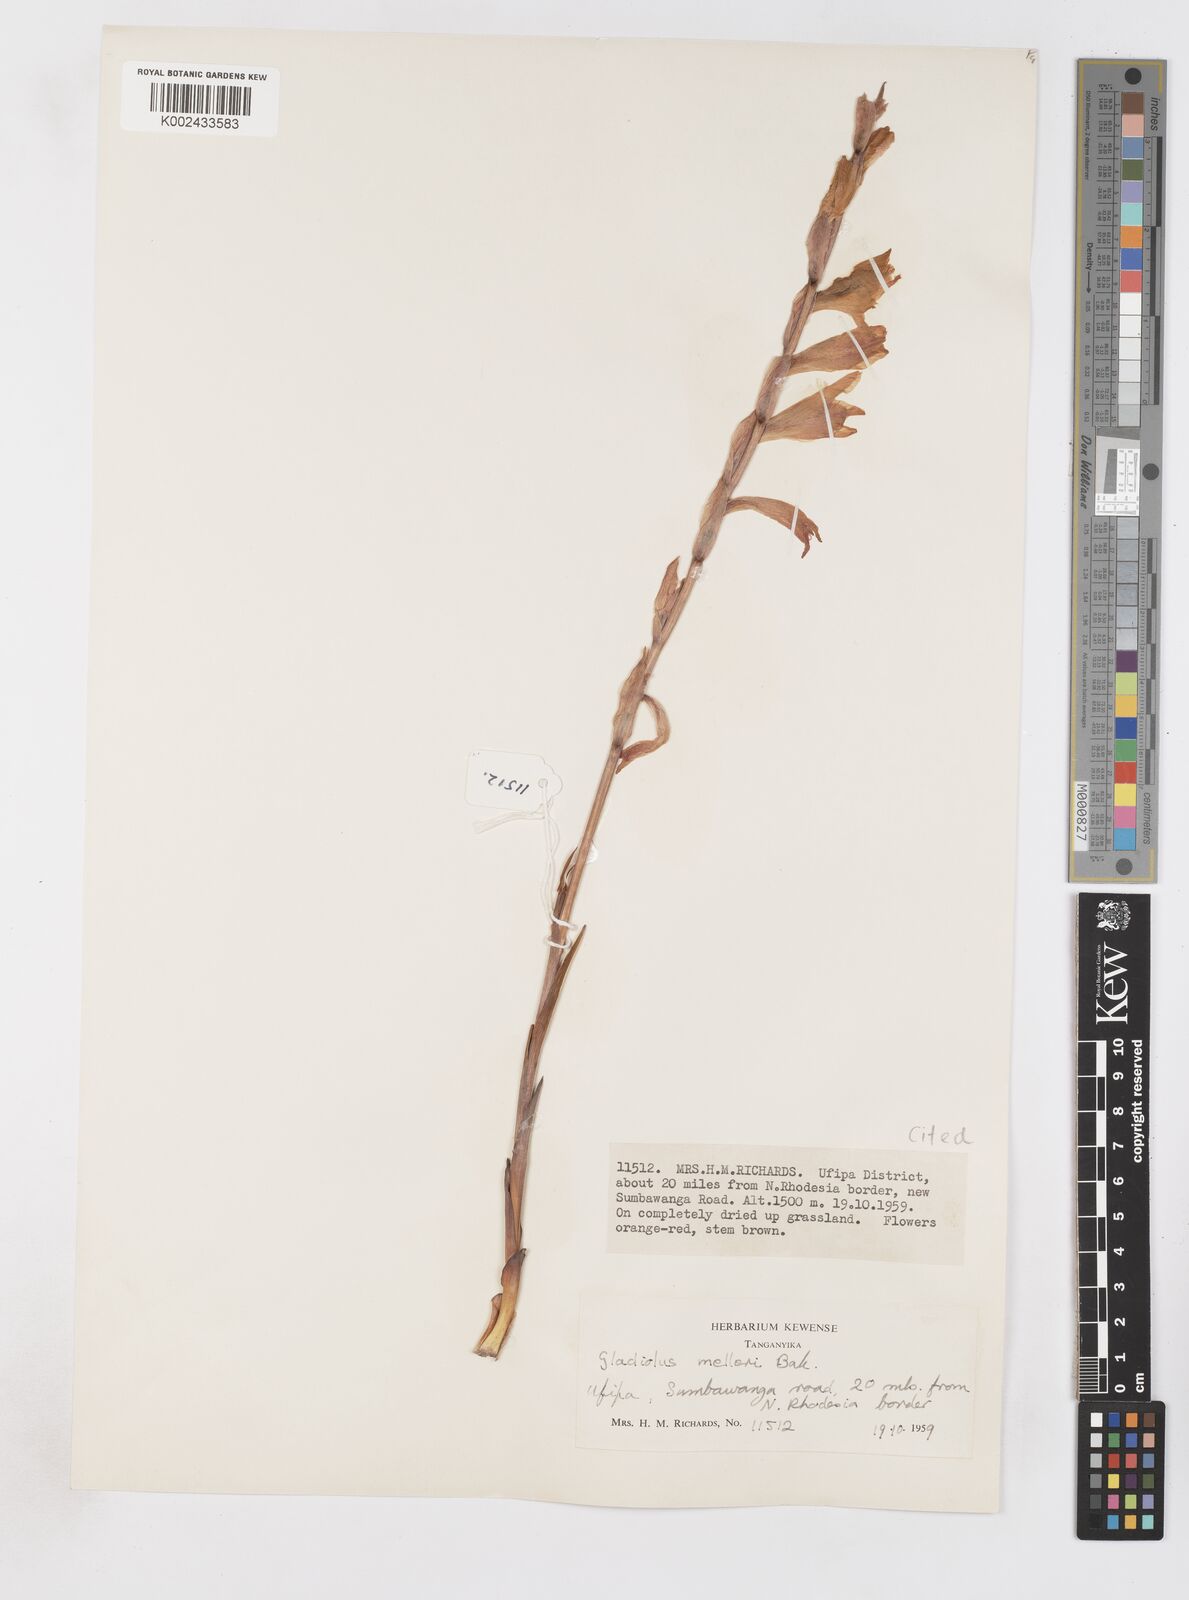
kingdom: Plantae
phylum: Tracheophyta
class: Liliopsida
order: Asparagales
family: Iridaceae
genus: Gladiolus
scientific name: Gladiolus melleri
